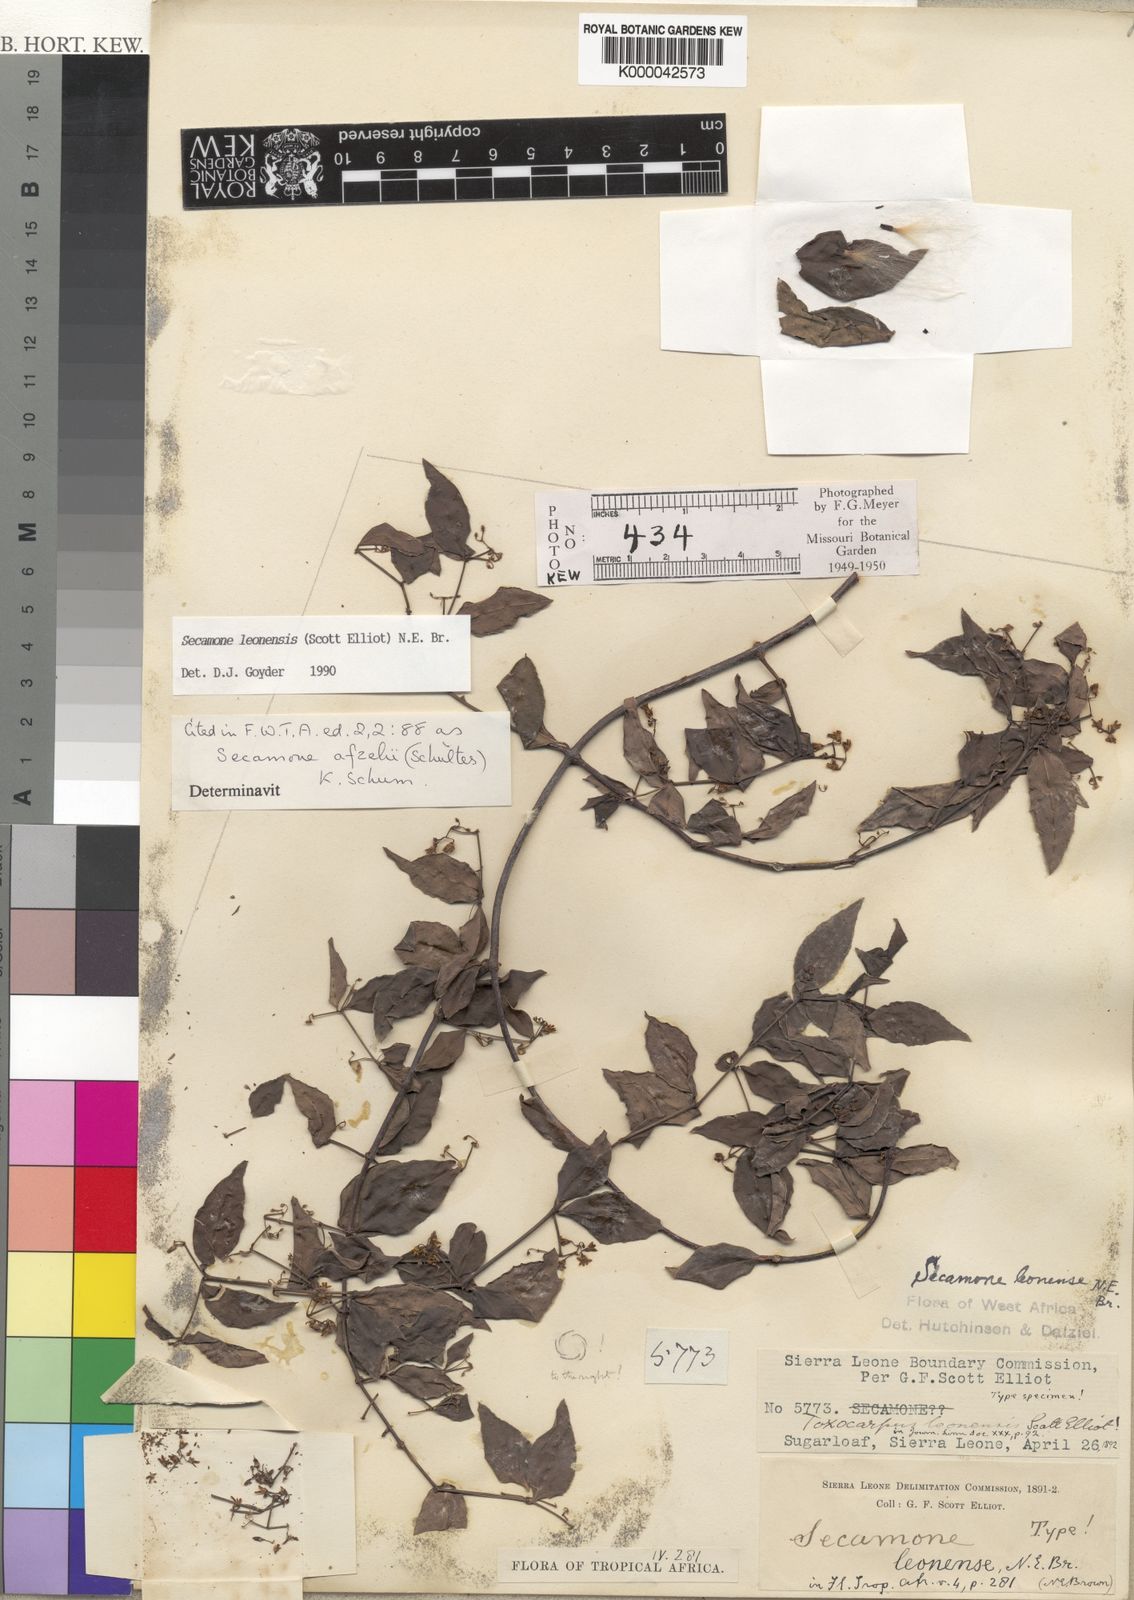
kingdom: Plantae
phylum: Tracheophyta
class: Magnoliopsida
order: Gentianales
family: Apocynaceae
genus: Secamone
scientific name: Secamone leonensis
